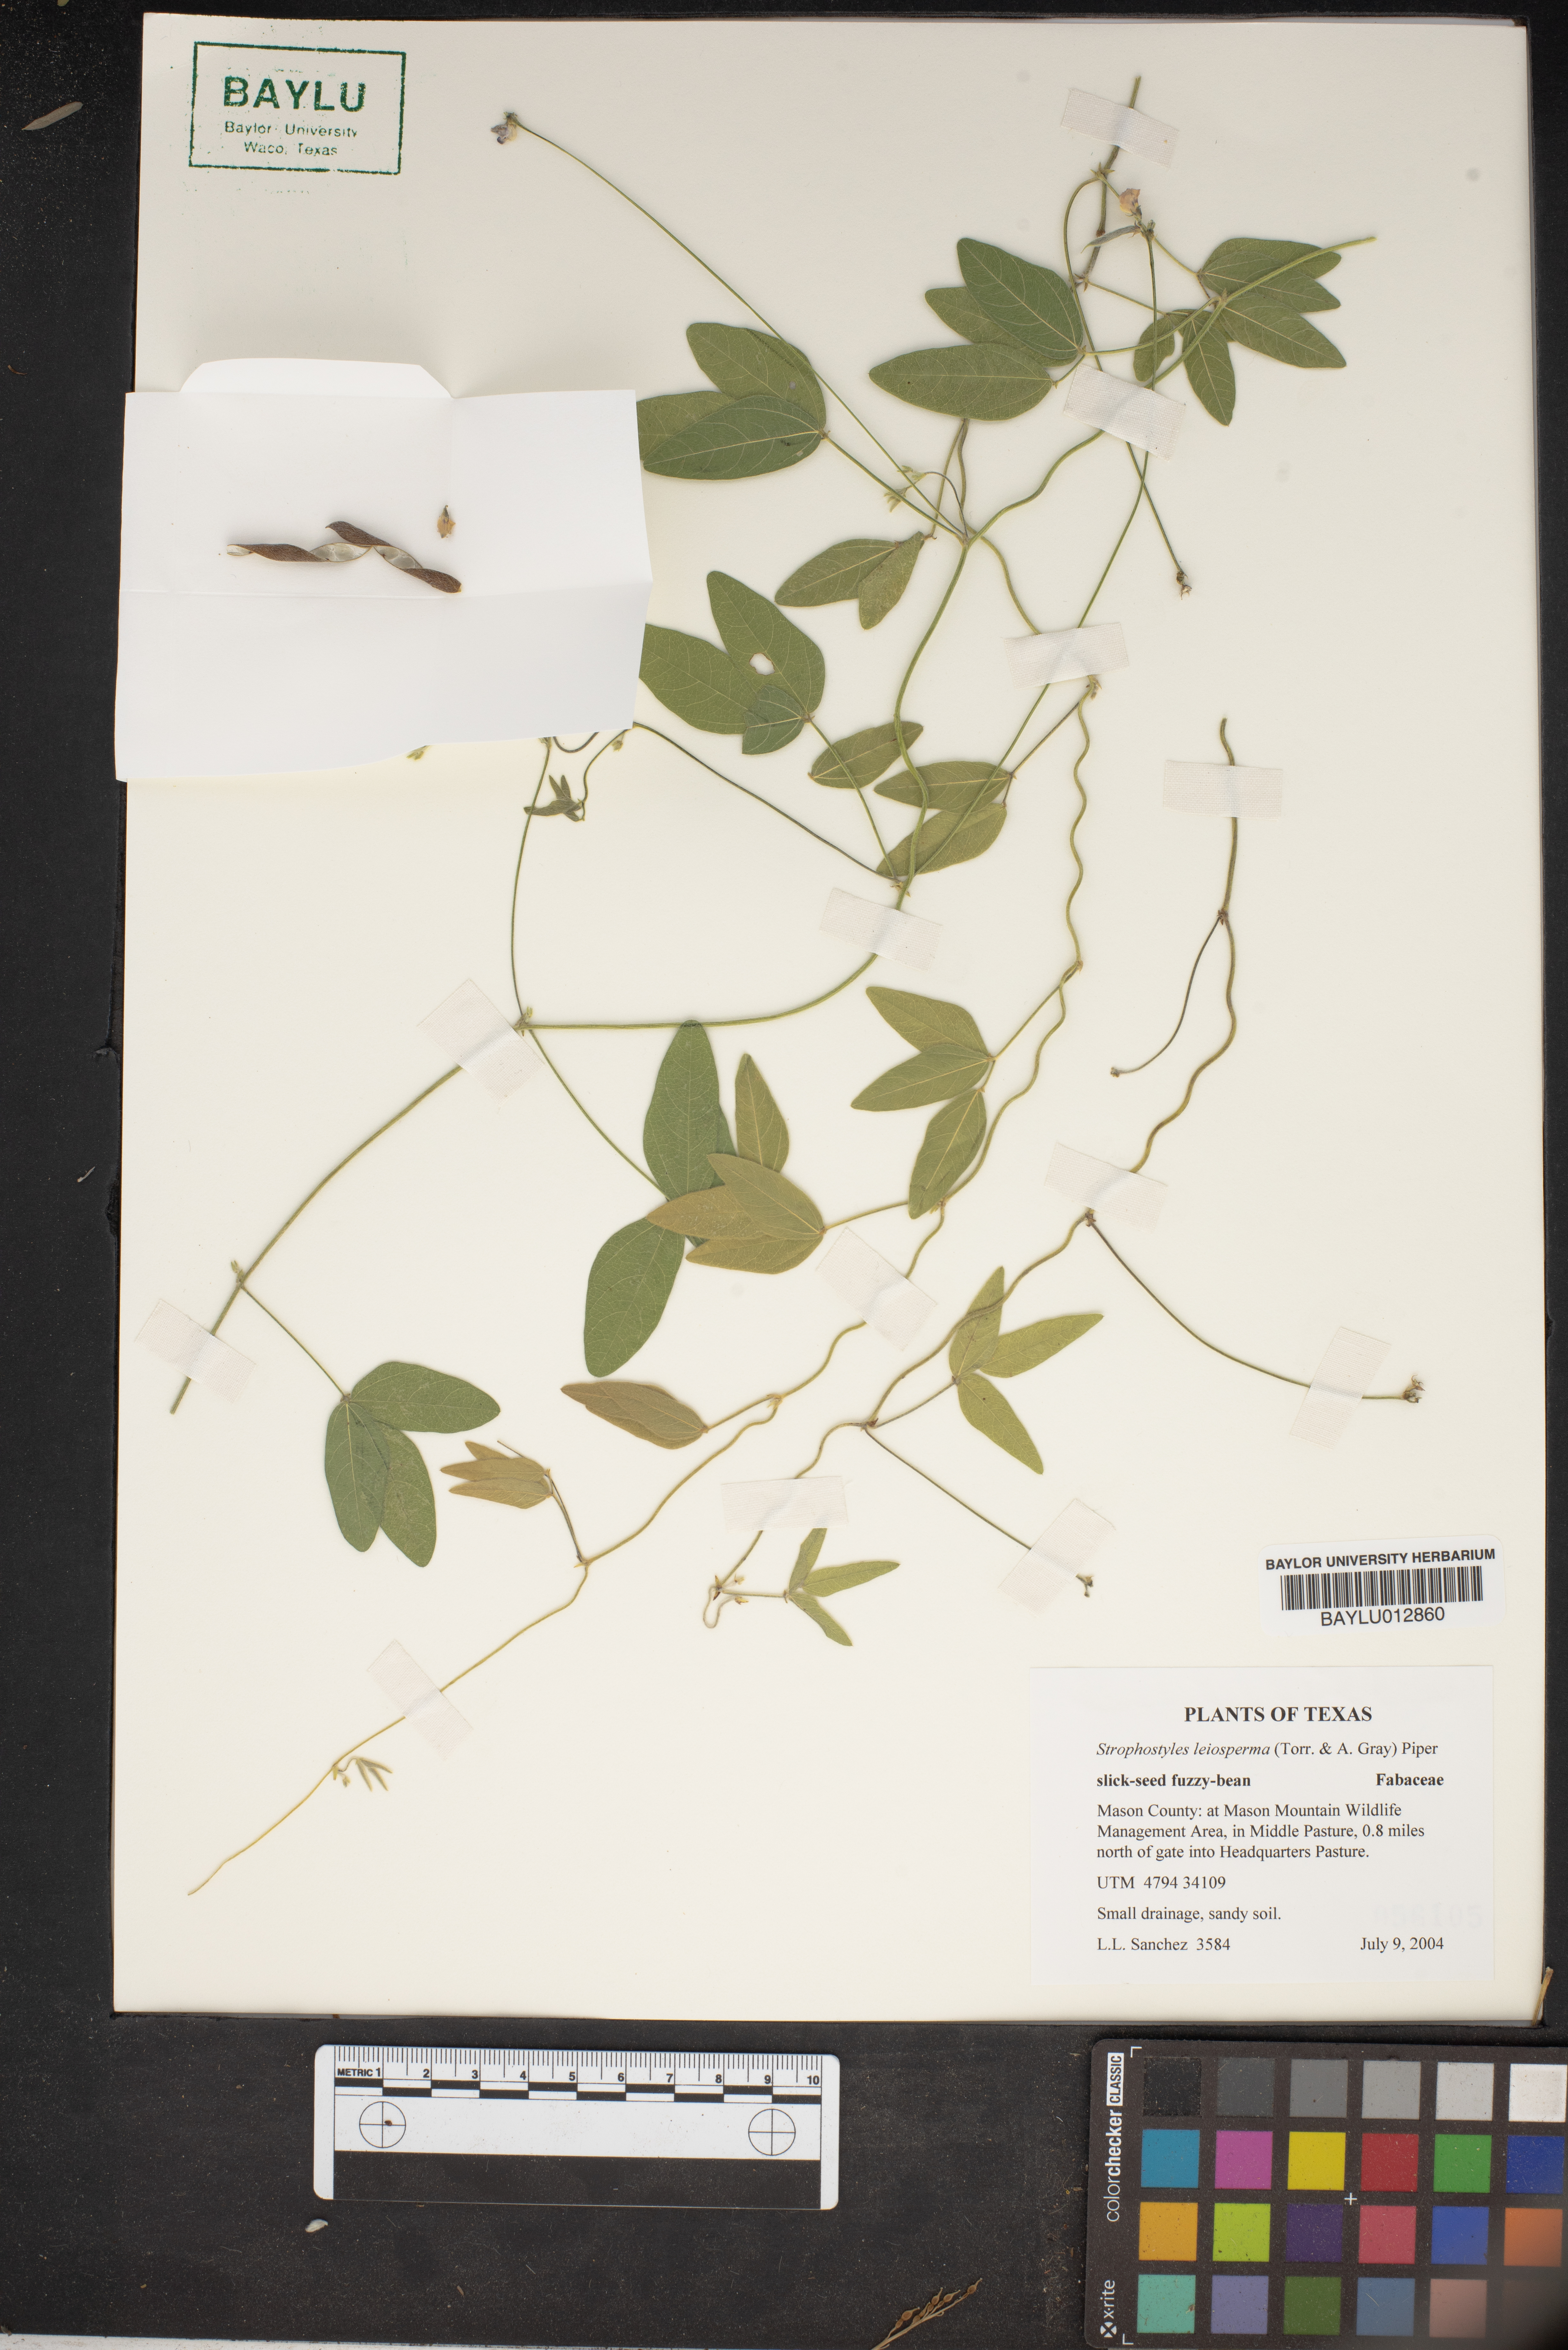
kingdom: Plantae
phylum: Tracheophyta
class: Magnoliopsida
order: Fabales
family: Fabaceae
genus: Strophostyles
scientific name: Strophostyles leiosperma
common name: Smooth-seed wild bean
